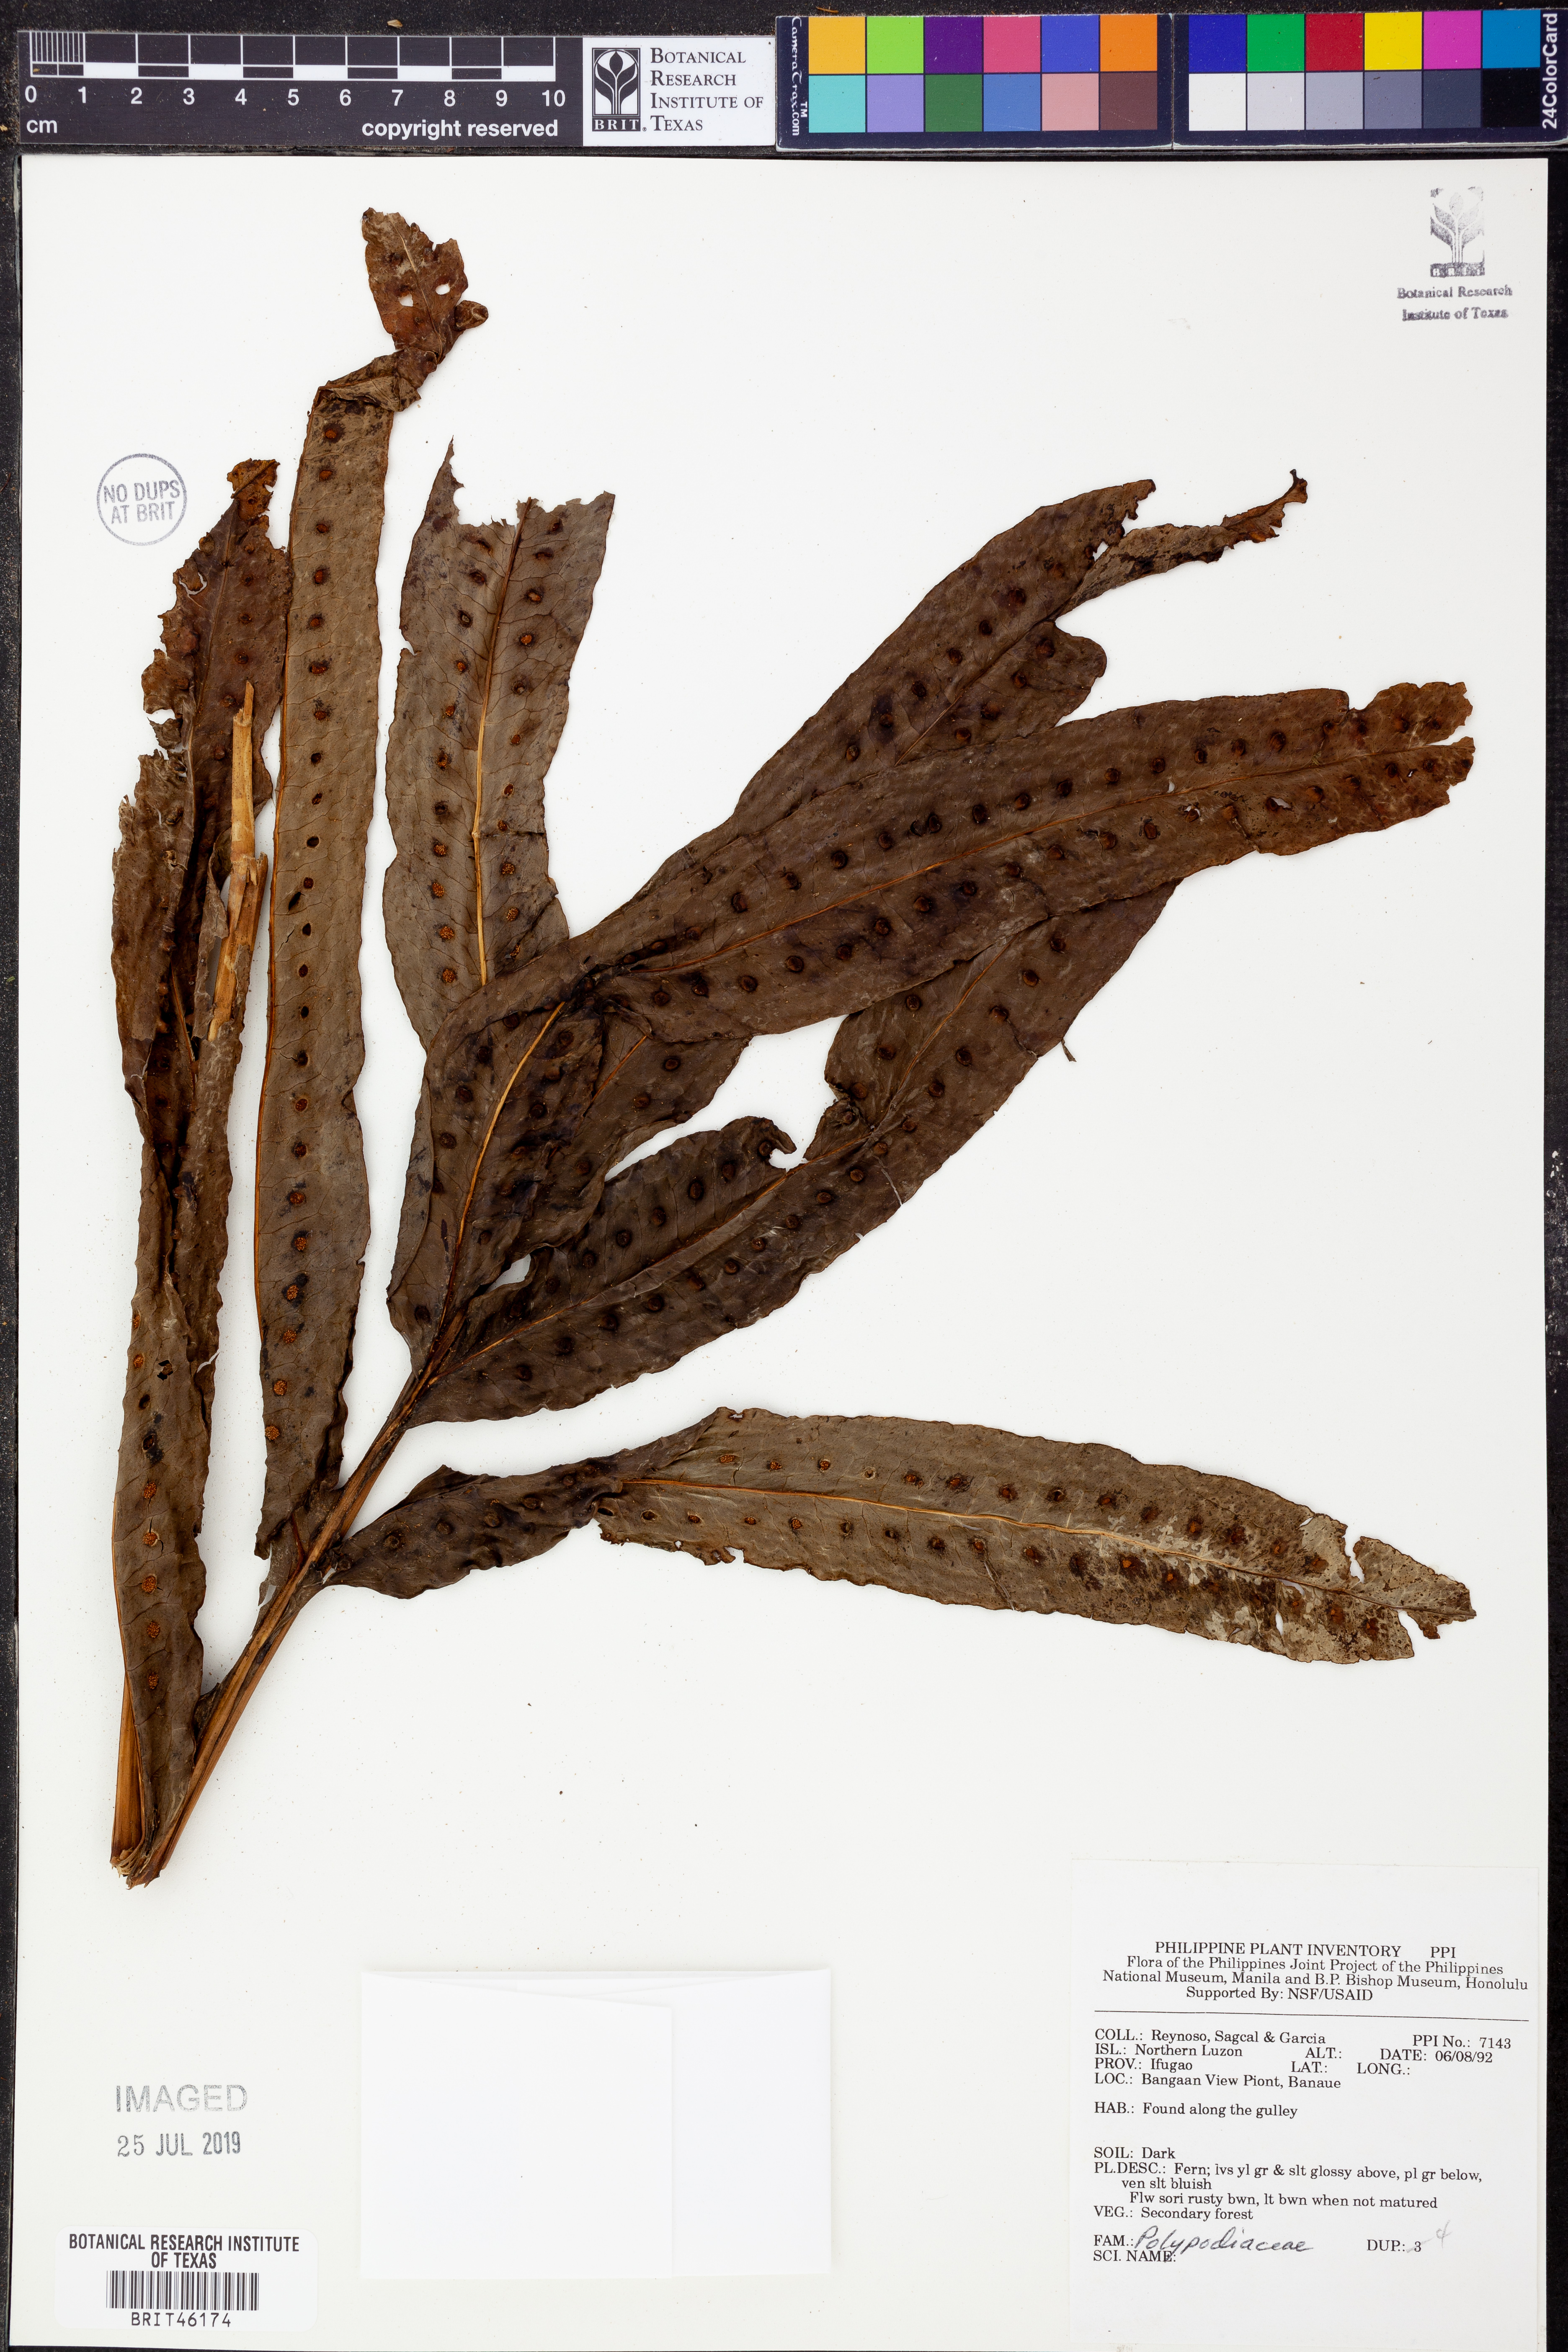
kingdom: Plantae
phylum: Tracheophyta
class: Polypodiopsida
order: Polypodiales
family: Polypodiaceae
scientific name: Polypodiaceae
